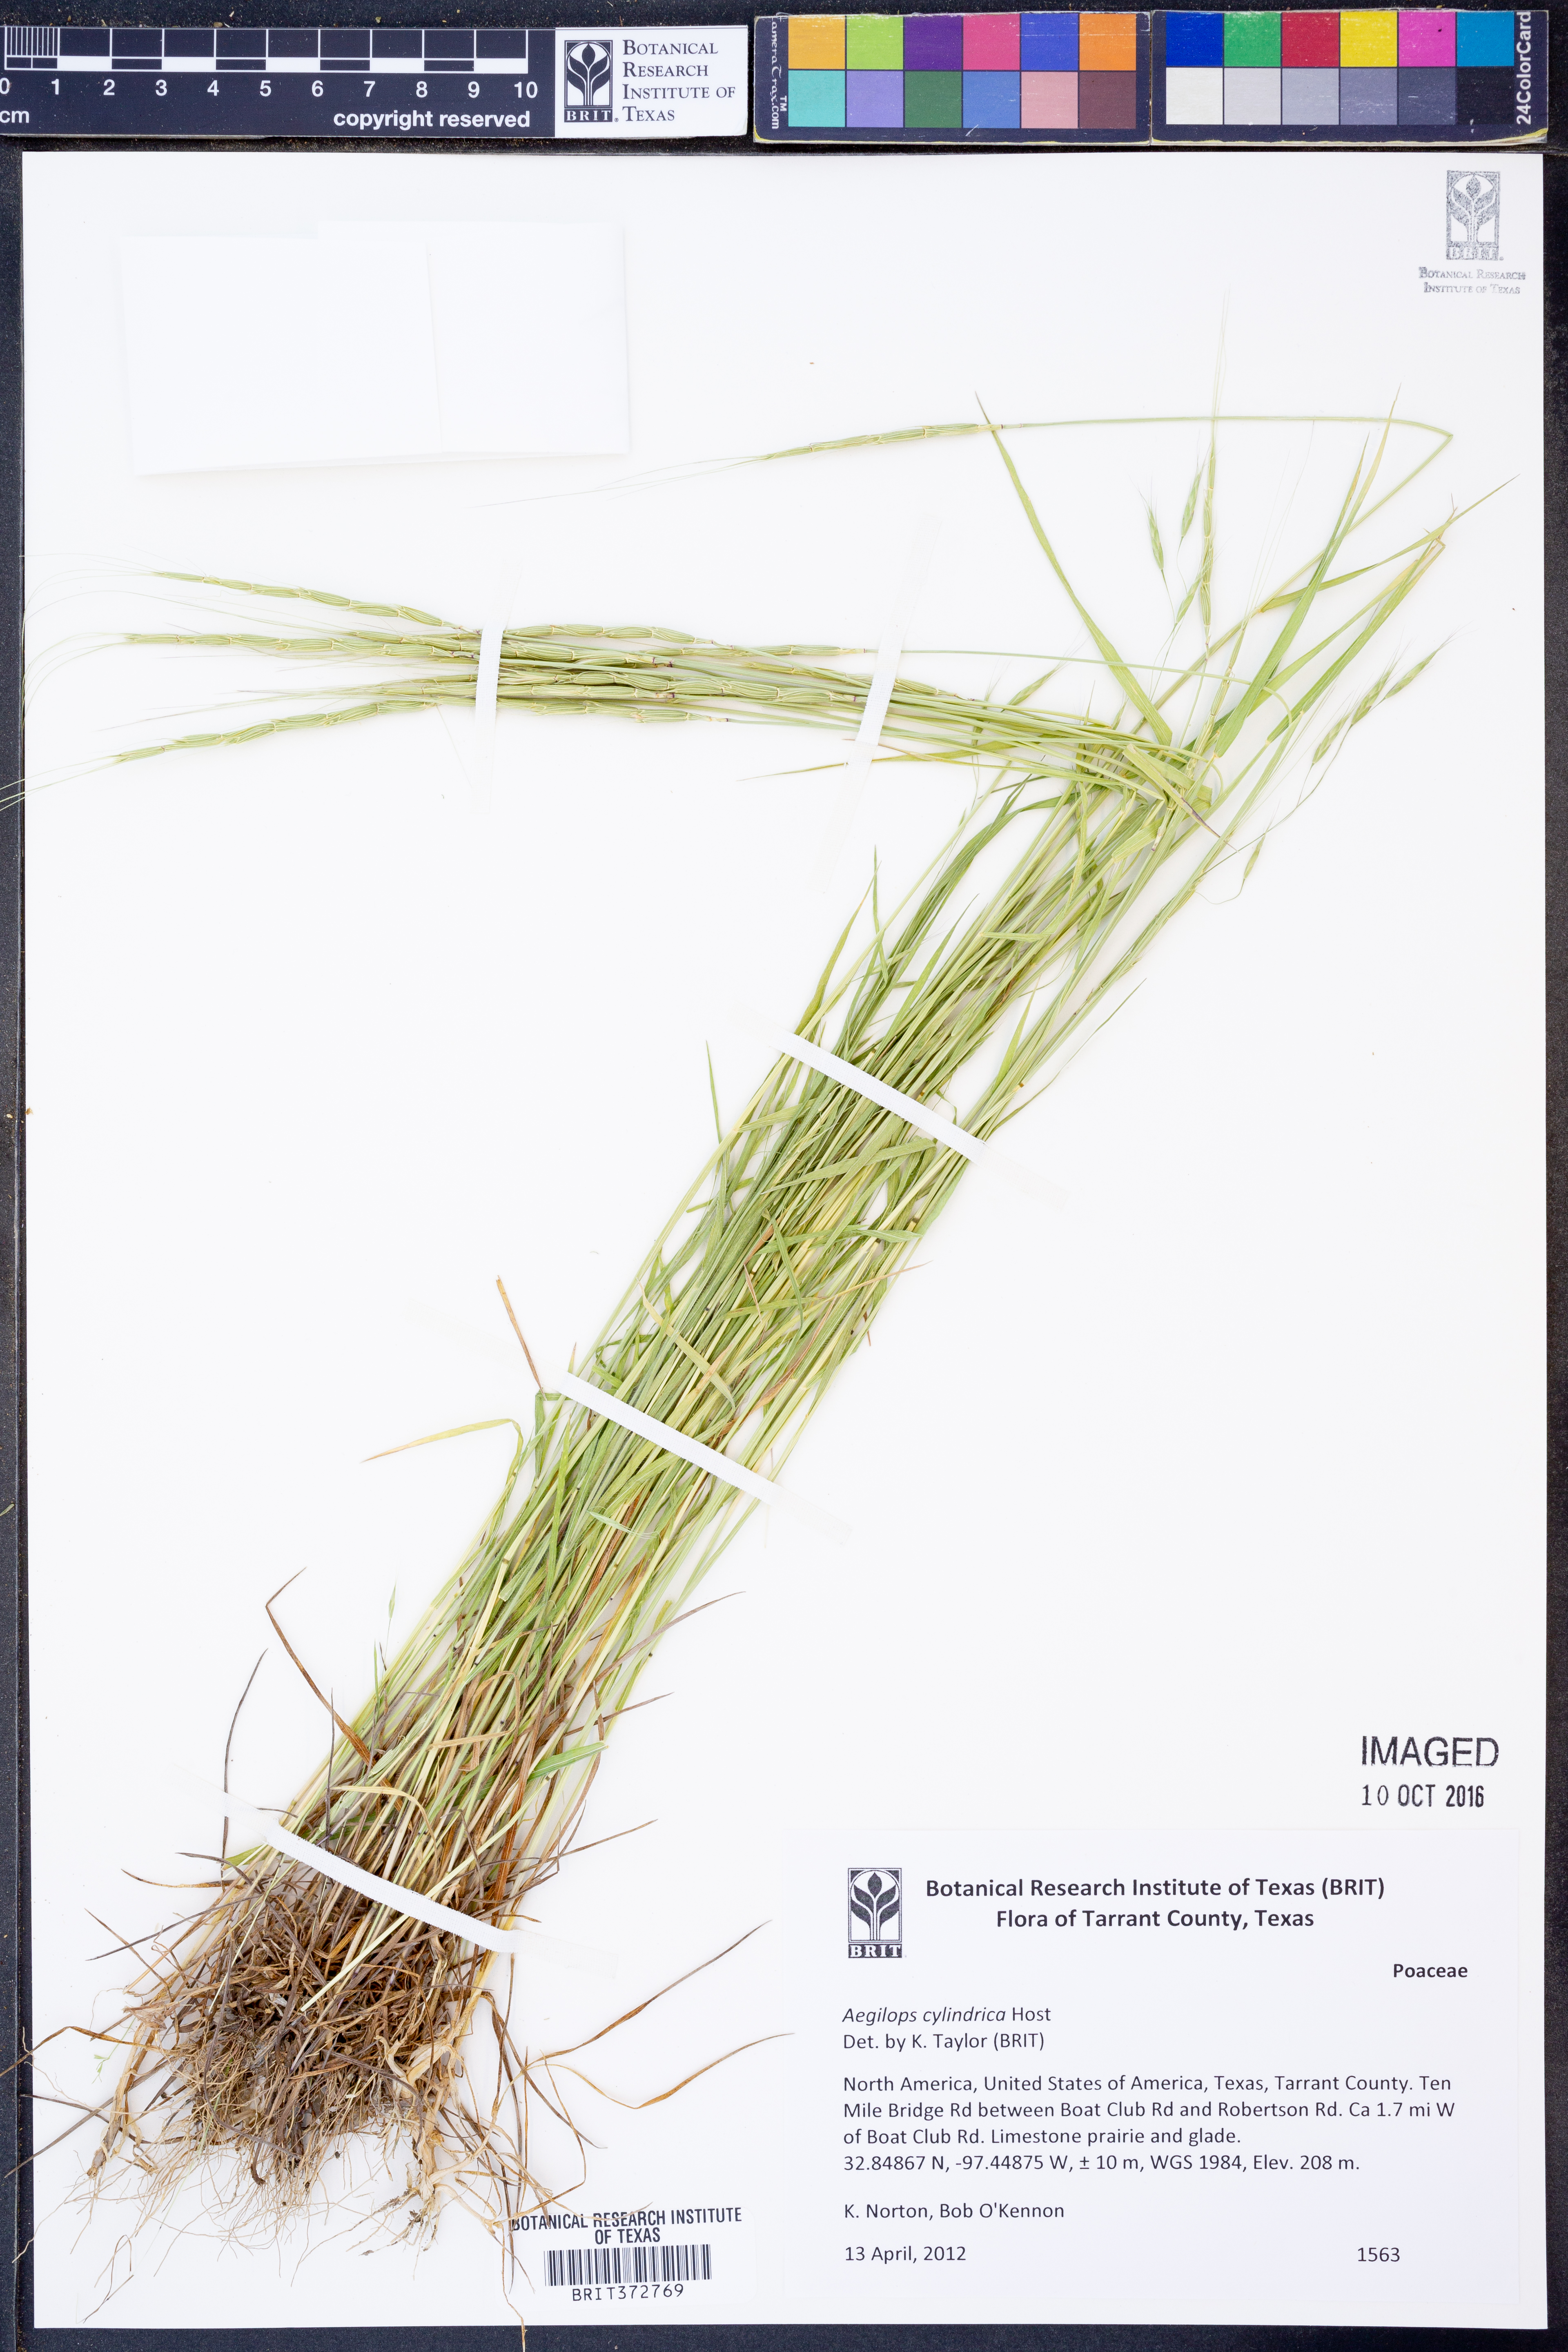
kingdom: Plantae
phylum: Tracheophyta
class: Liliopsida
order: Poales
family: Poaceae
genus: Aegilops
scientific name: Aegilops cylindrica
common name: Jointed goatgrass
